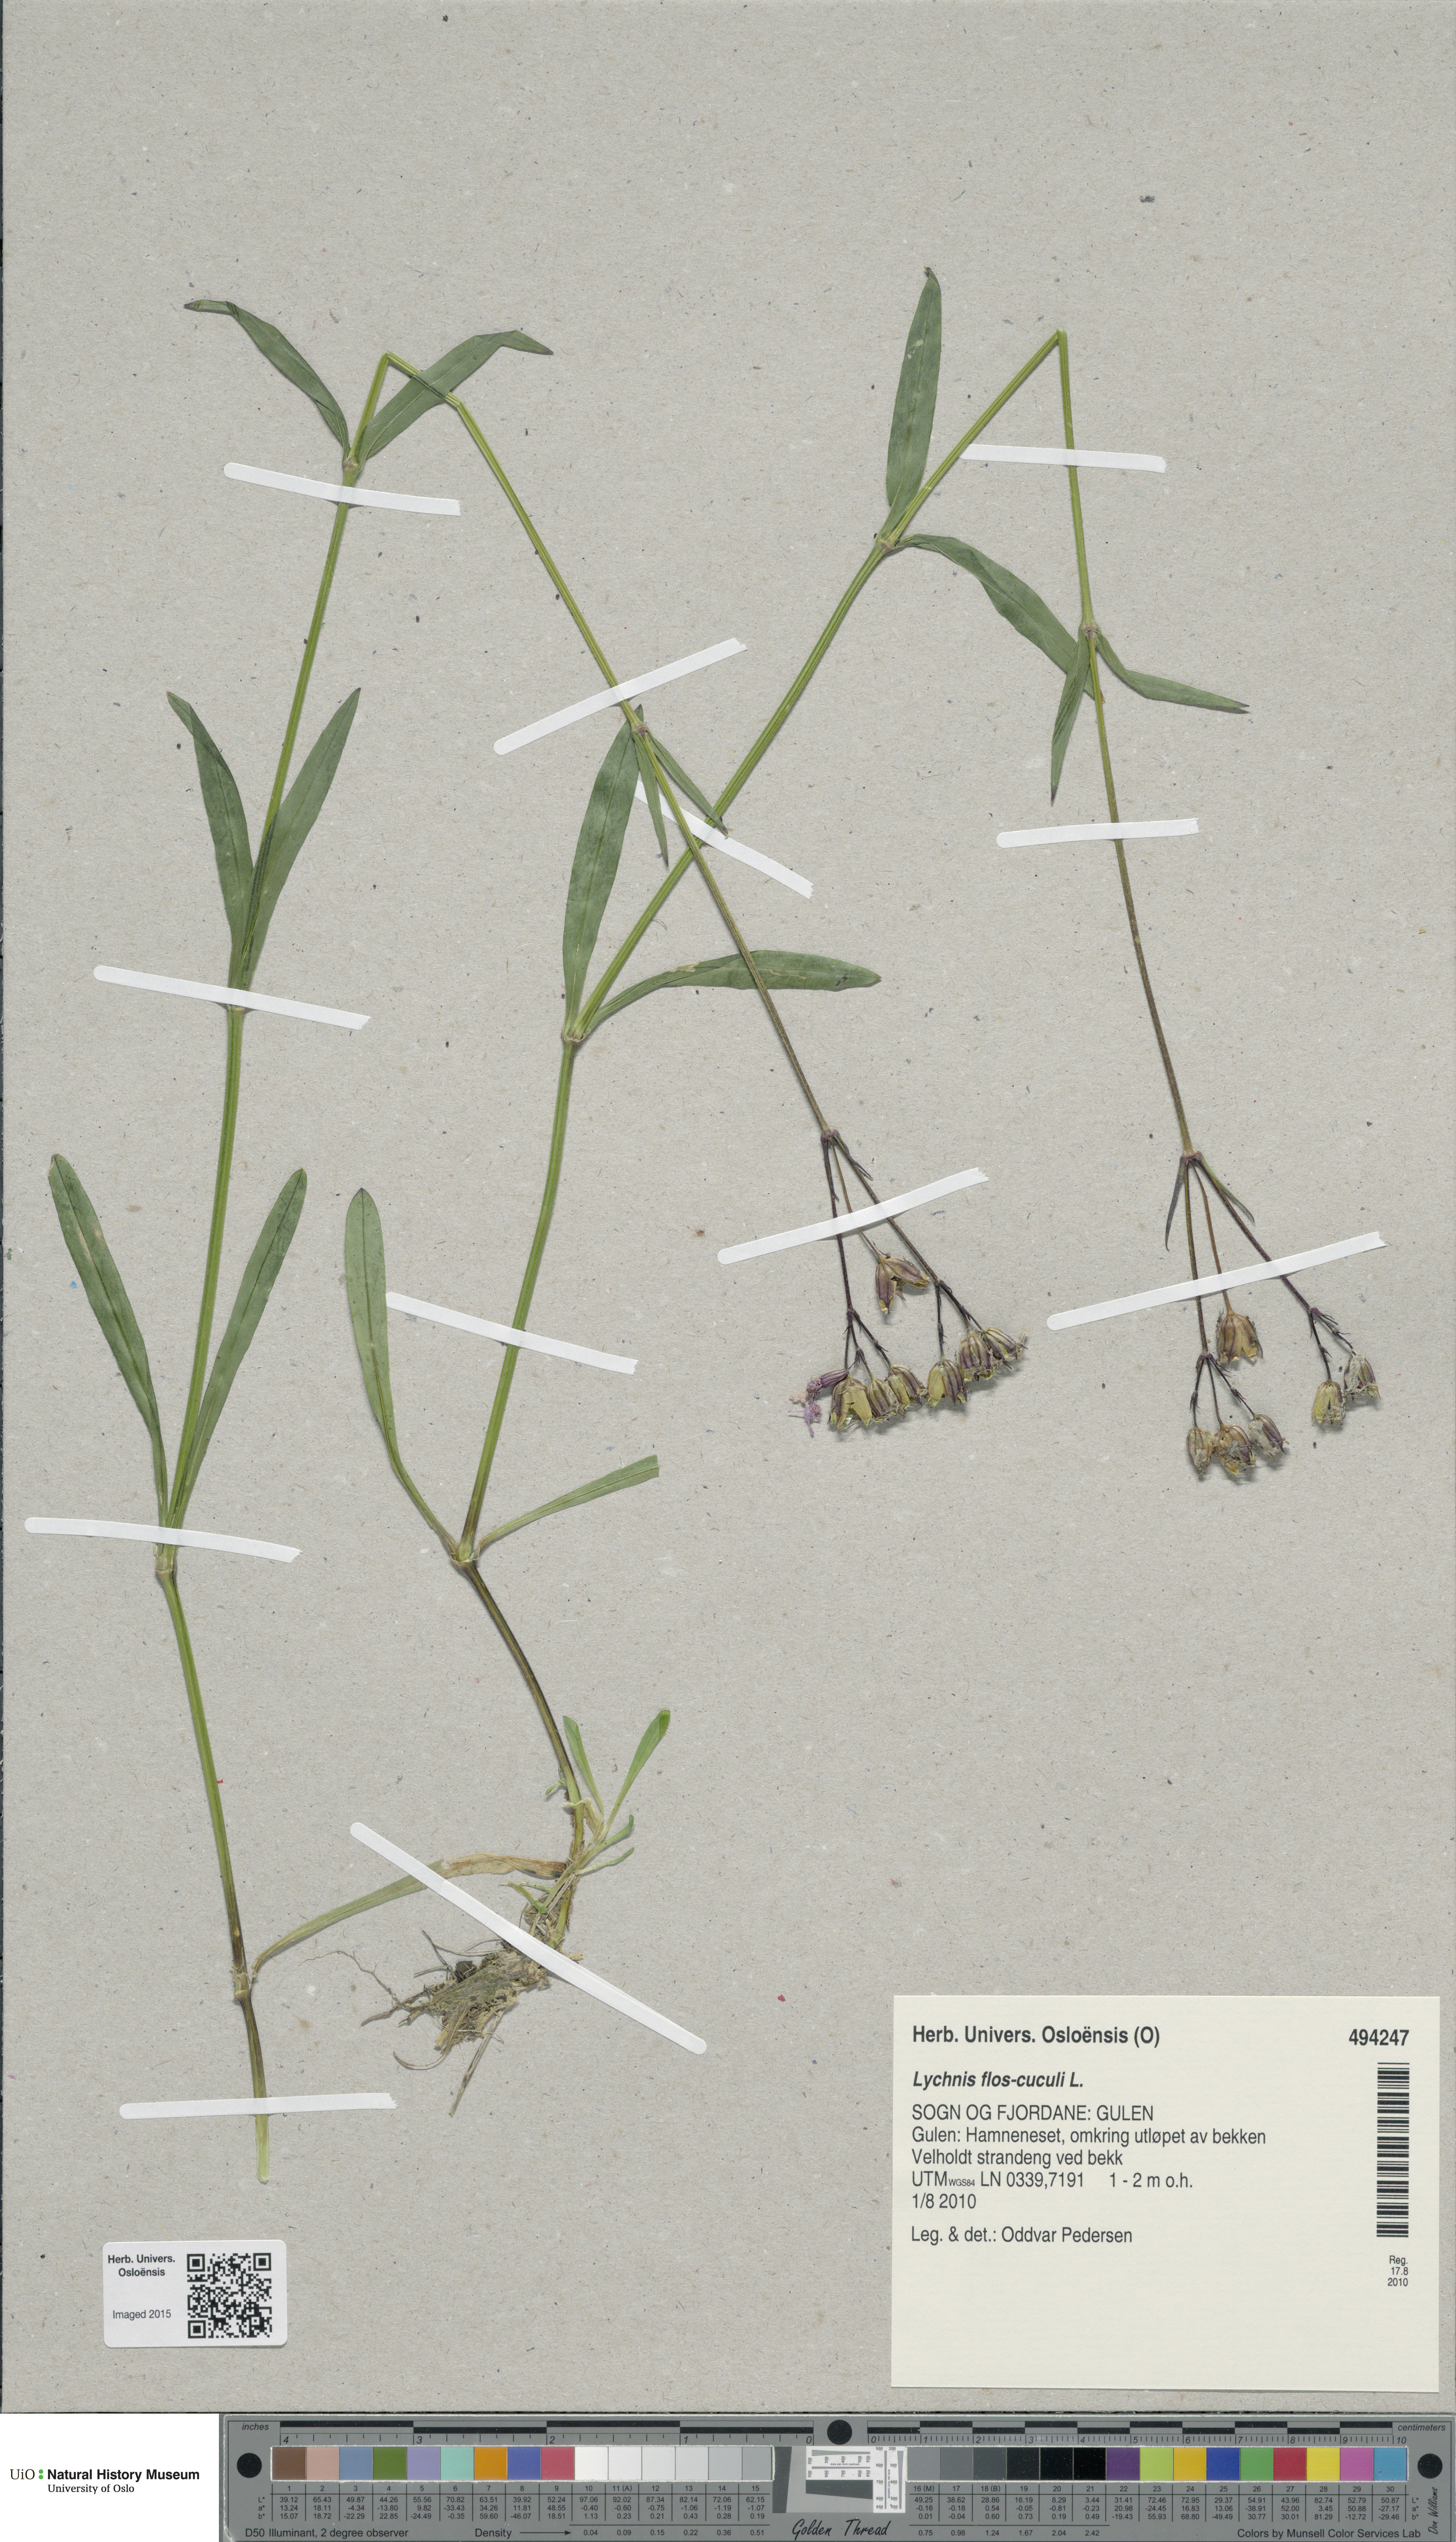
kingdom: Plantae
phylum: Tracheophyta
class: Magnoliopsida
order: Caryophyllales
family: Caryophyllaceae
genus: Silene
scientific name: Silene flos-cuculi
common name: Ragged-robin
